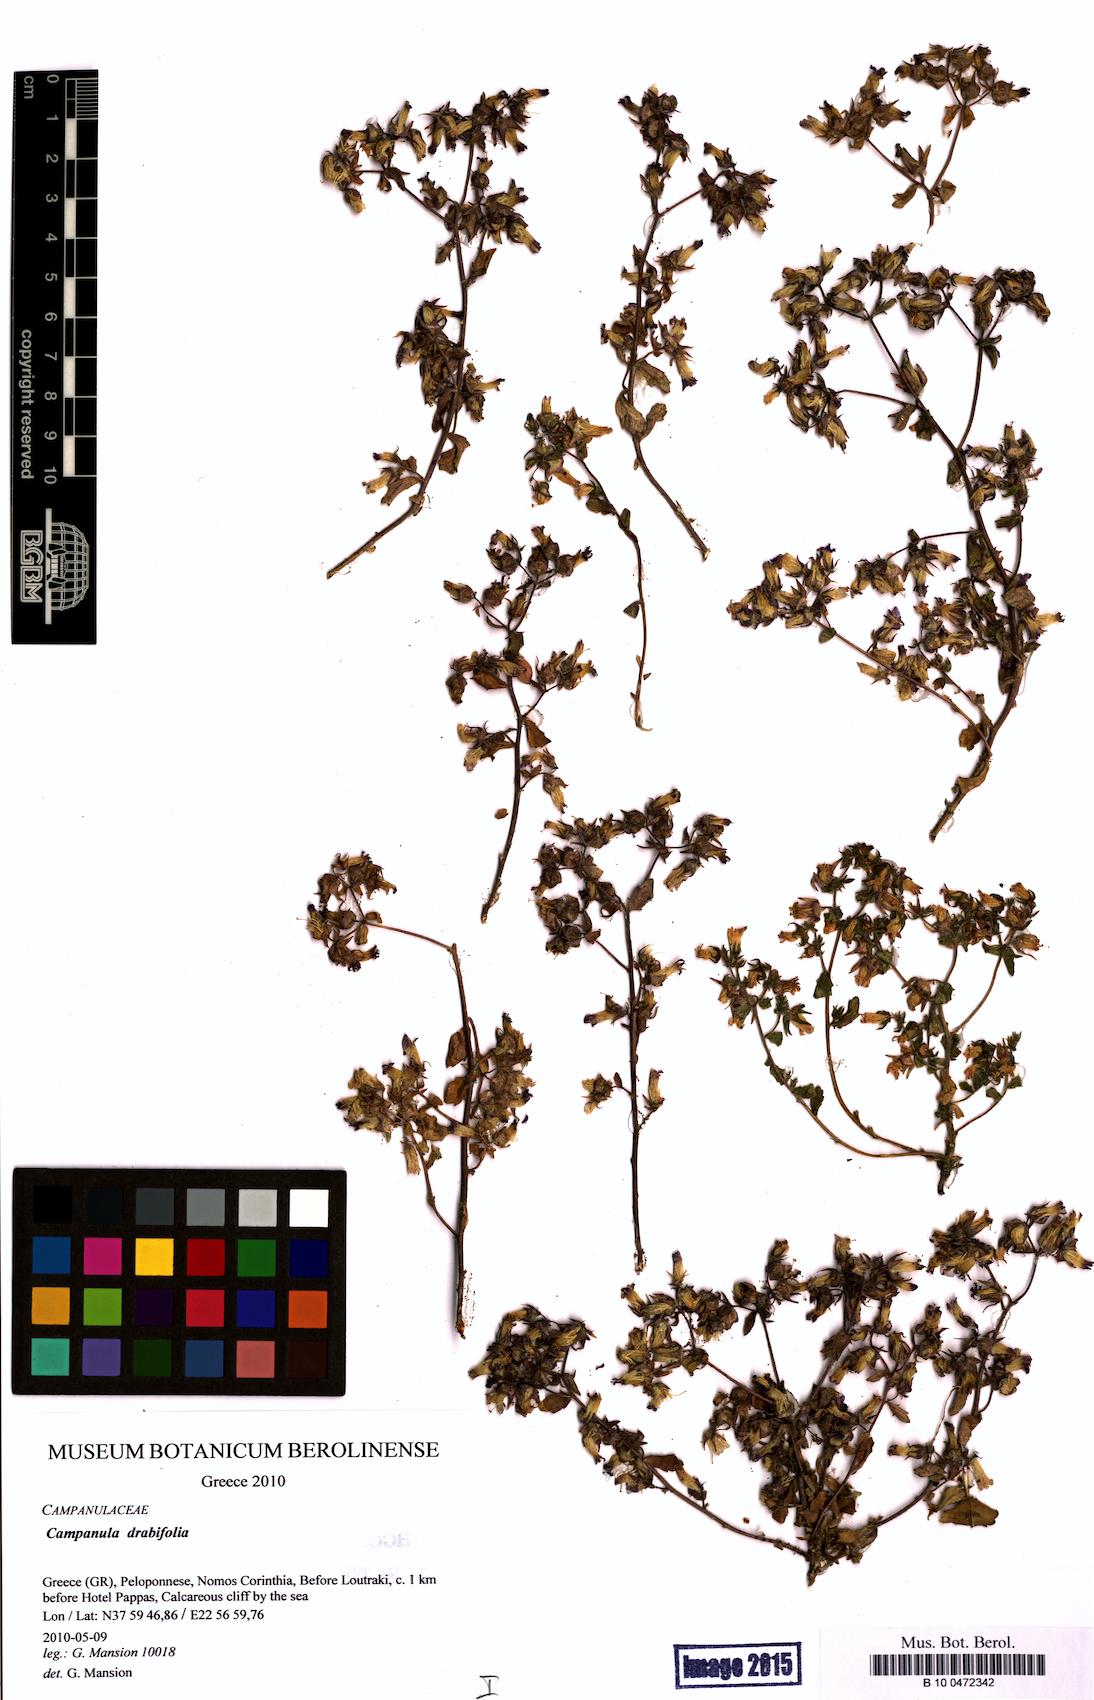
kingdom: Plantae
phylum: Tracheophyta
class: Magnoliopsida
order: Asterales
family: Campanulaceae
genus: Campanula
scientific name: Campanula drabifolia
